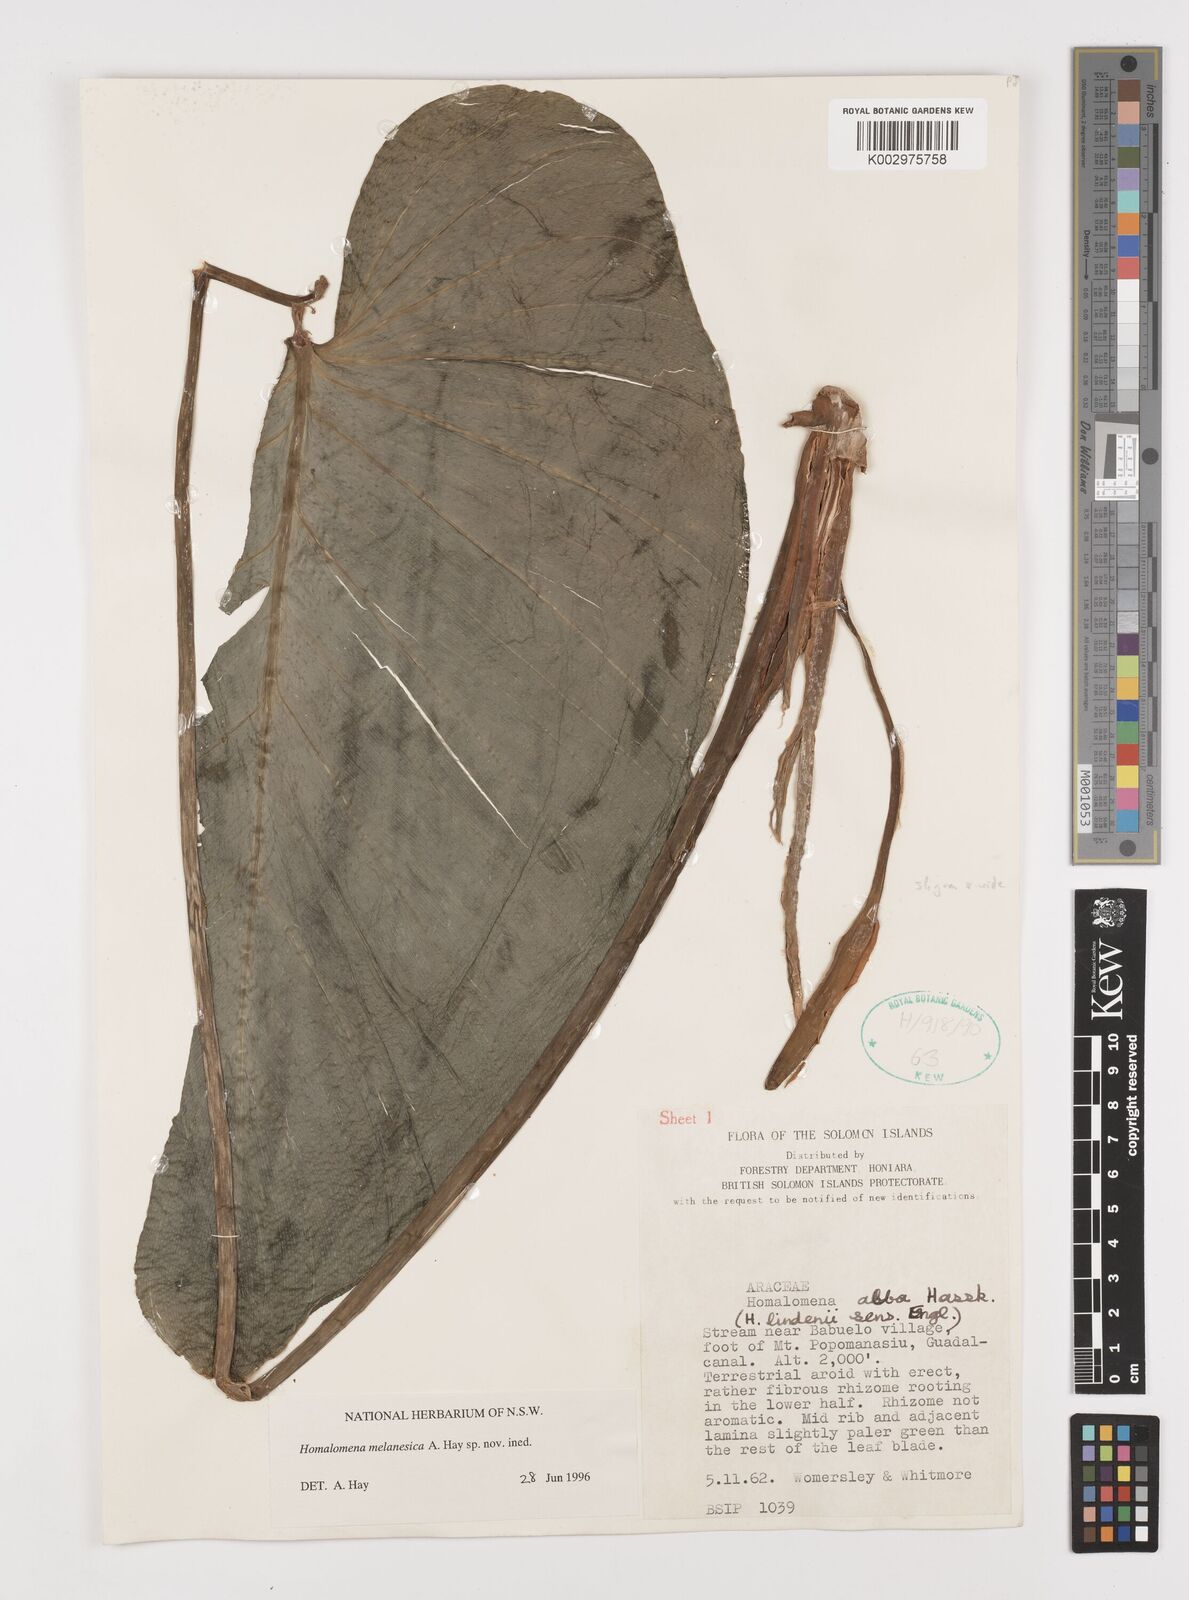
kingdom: Plantae
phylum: Tracheophyta
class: Liliopsida
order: Alismatales
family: Araceae
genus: Homalomena
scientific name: Homalomena melanesica
